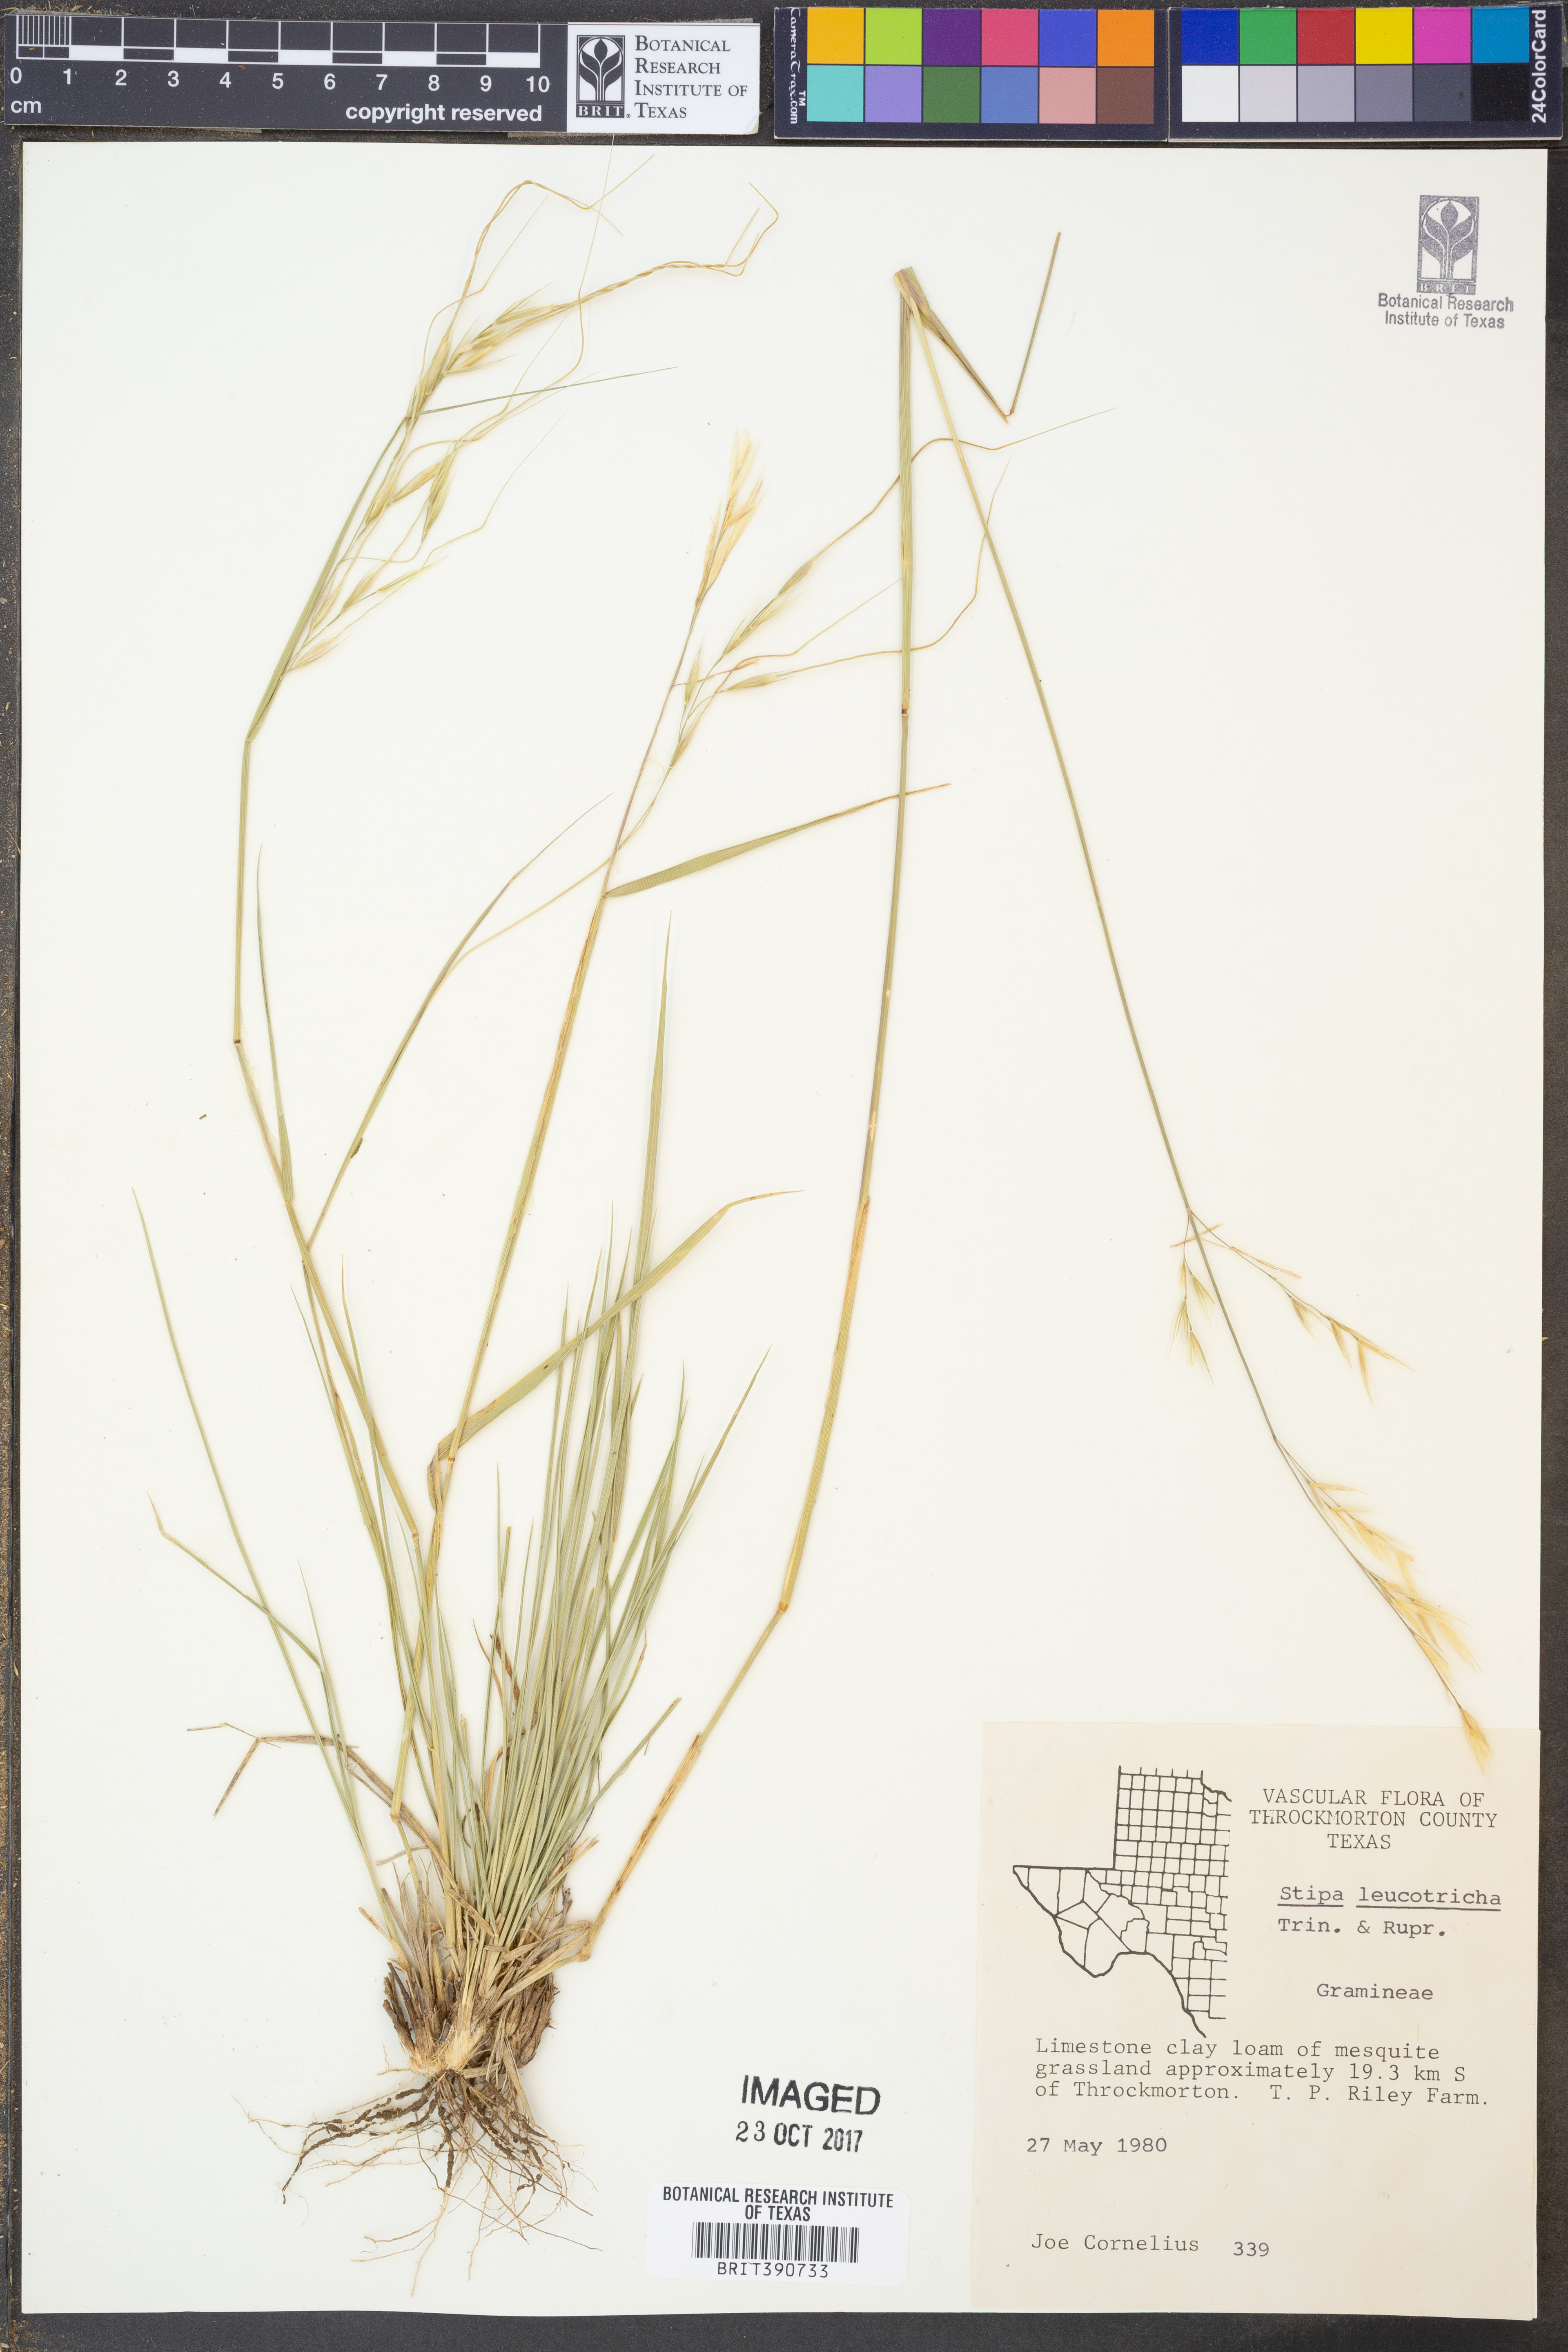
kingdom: Plantae
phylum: Tracheophyta
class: Liliopsida
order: Poales
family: Poaceae
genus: Nassella
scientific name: Nassella leucotricha
